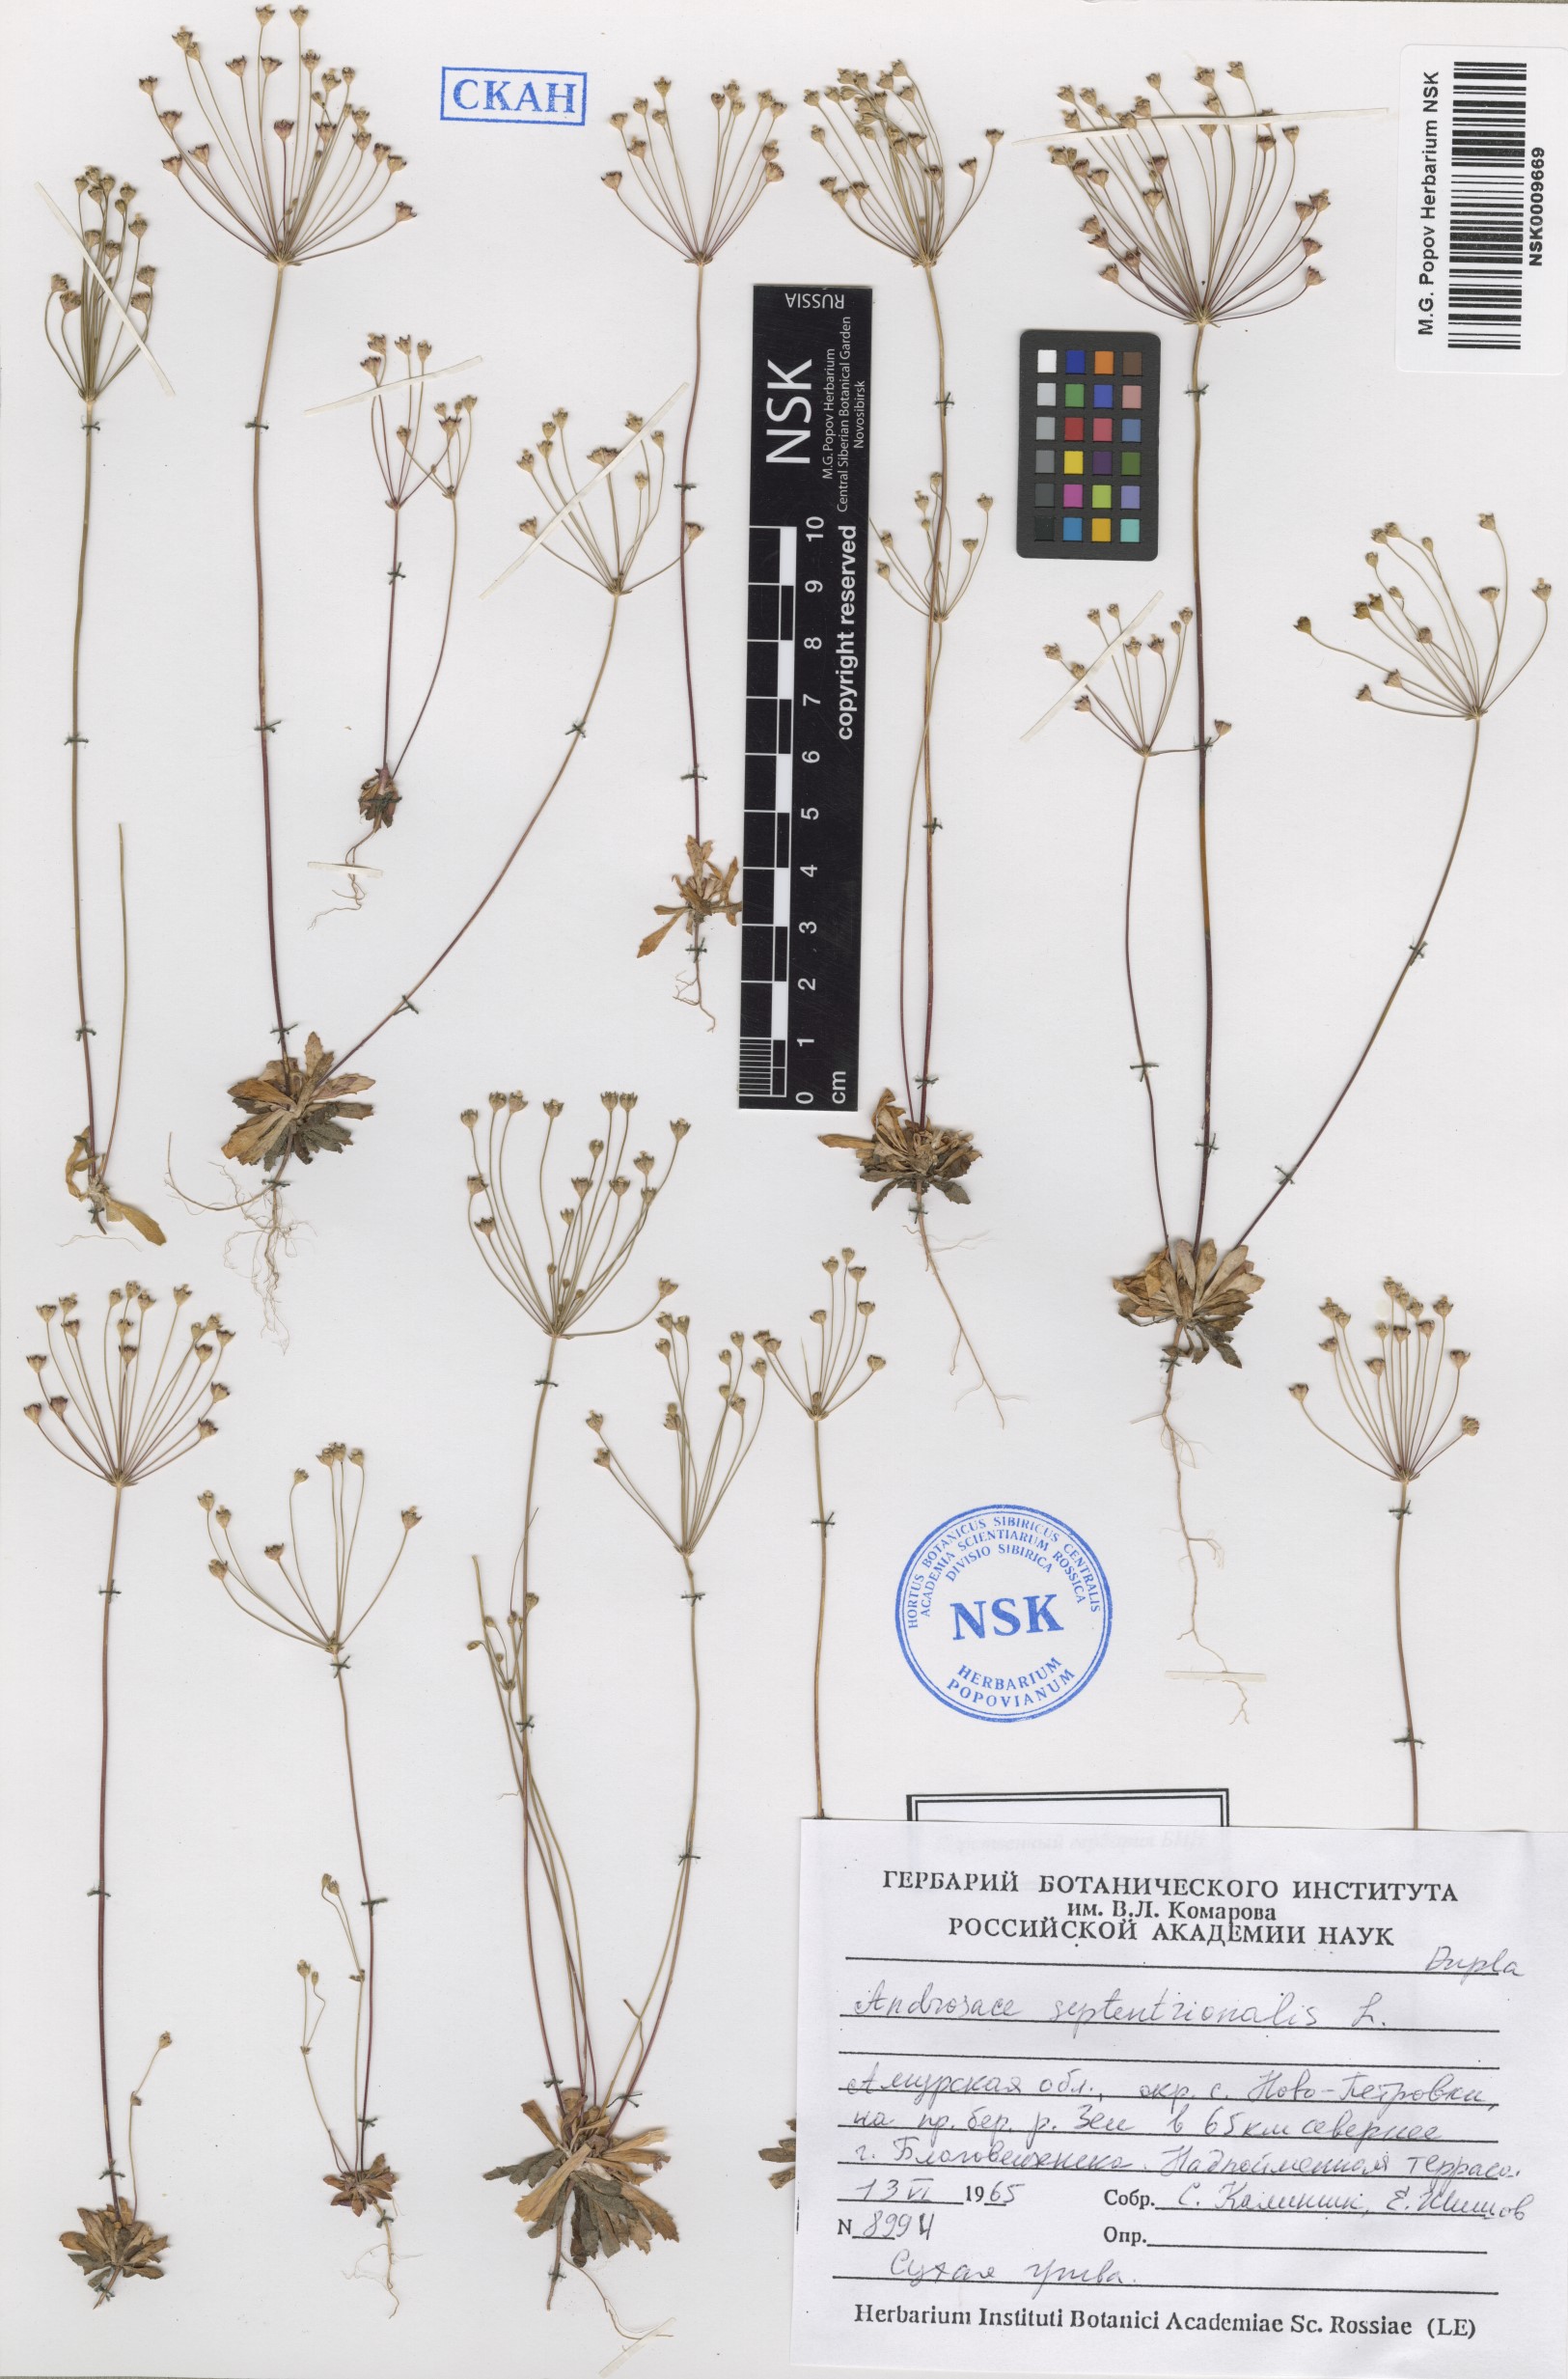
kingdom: Plantae
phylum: Tracheophyta
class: Magnoliopsida
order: Ericales
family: Primulaceae
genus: Androsace
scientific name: Androsace septentrionalis
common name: Hairy northern fairy-candelabra
